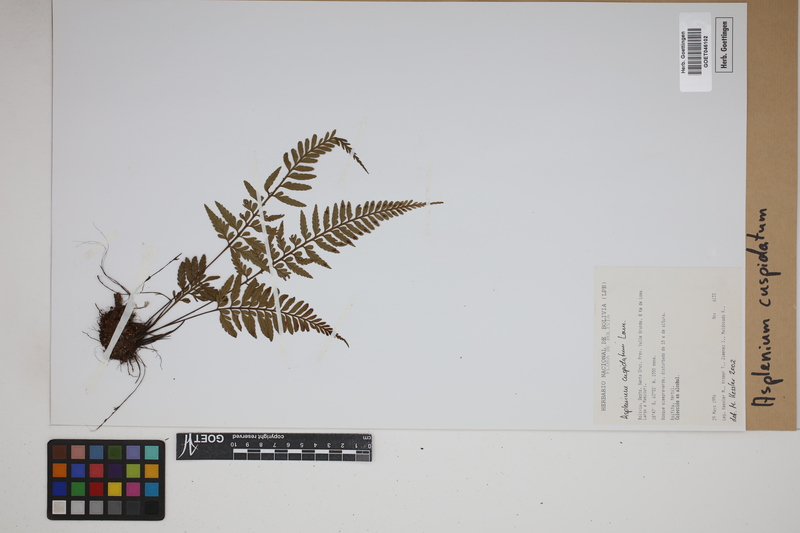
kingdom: Plantae
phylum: Tracheophyta
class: Polypodiopsida
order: Polypodiales
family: Aspleniaceae
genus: Asplenium
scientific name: Asplenium cuspidatum
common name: Eared spleenwort
